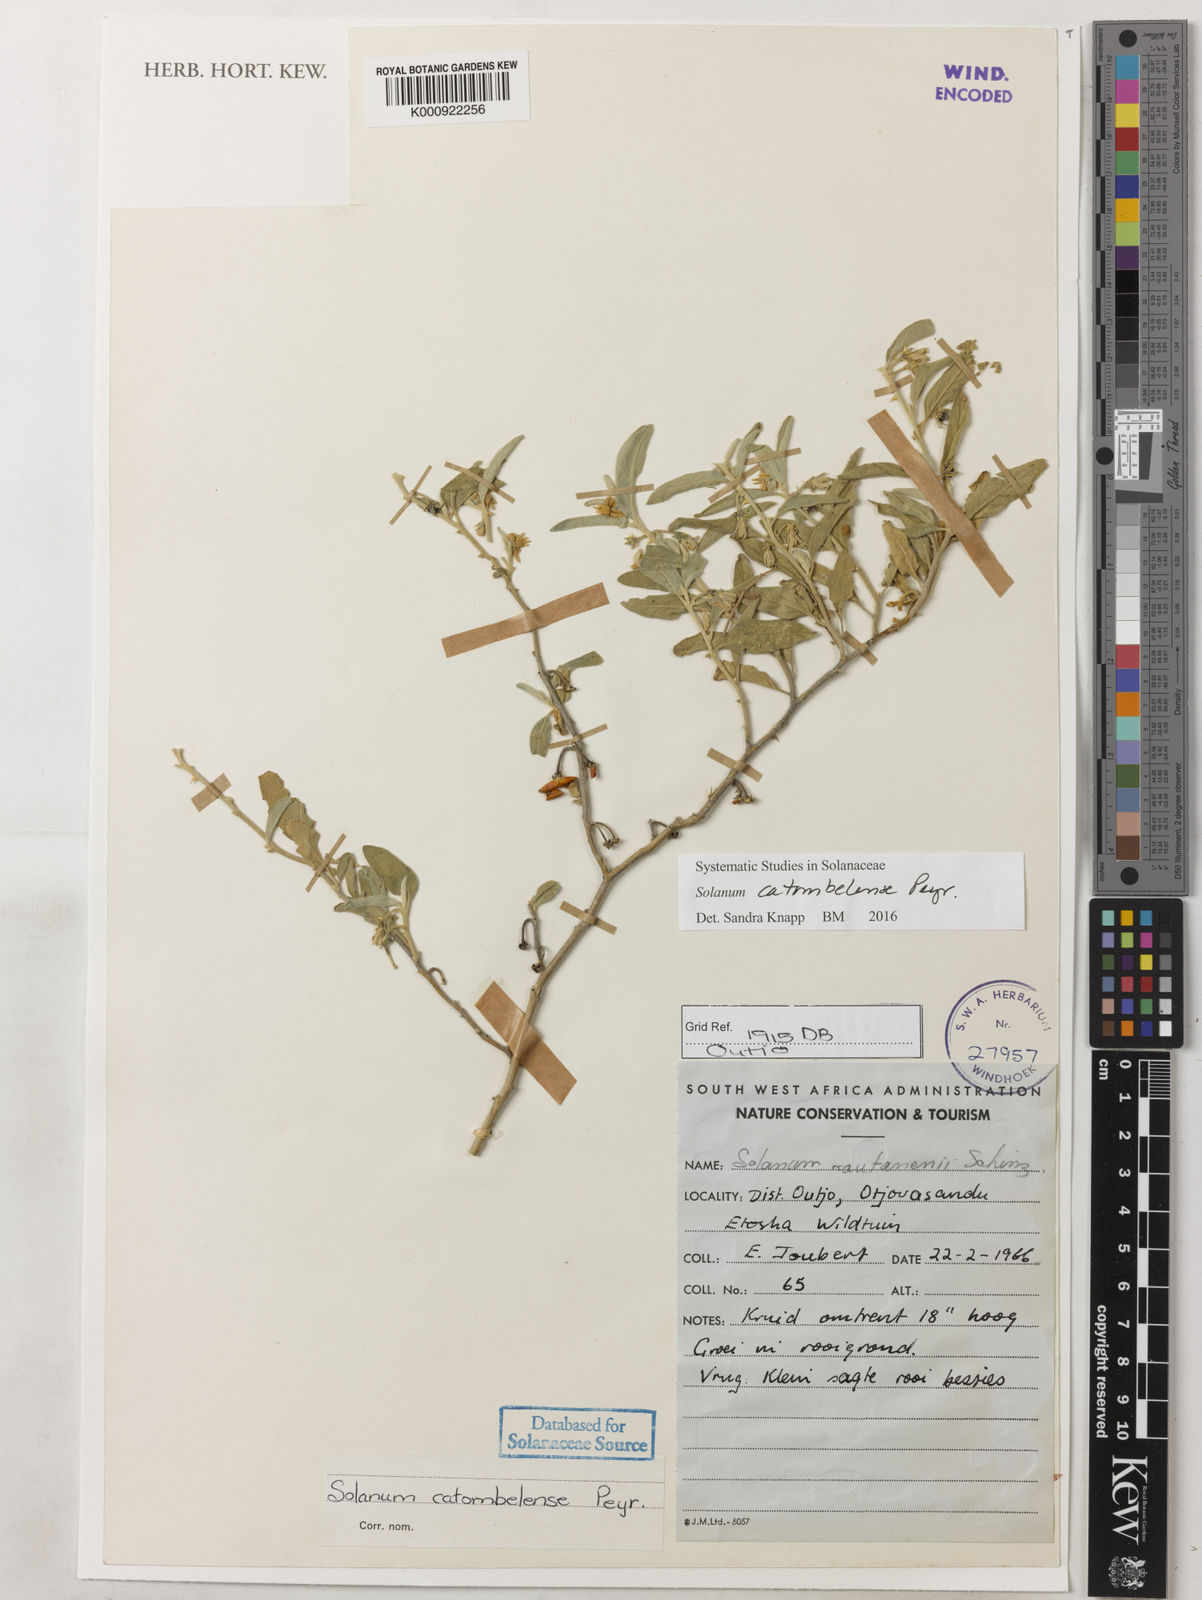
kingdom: Plantae
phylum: Tracheophyta
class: Magnoliopsida
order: Solanales
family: Solanaceae
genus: Solanum
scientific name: Solanum catombelense
